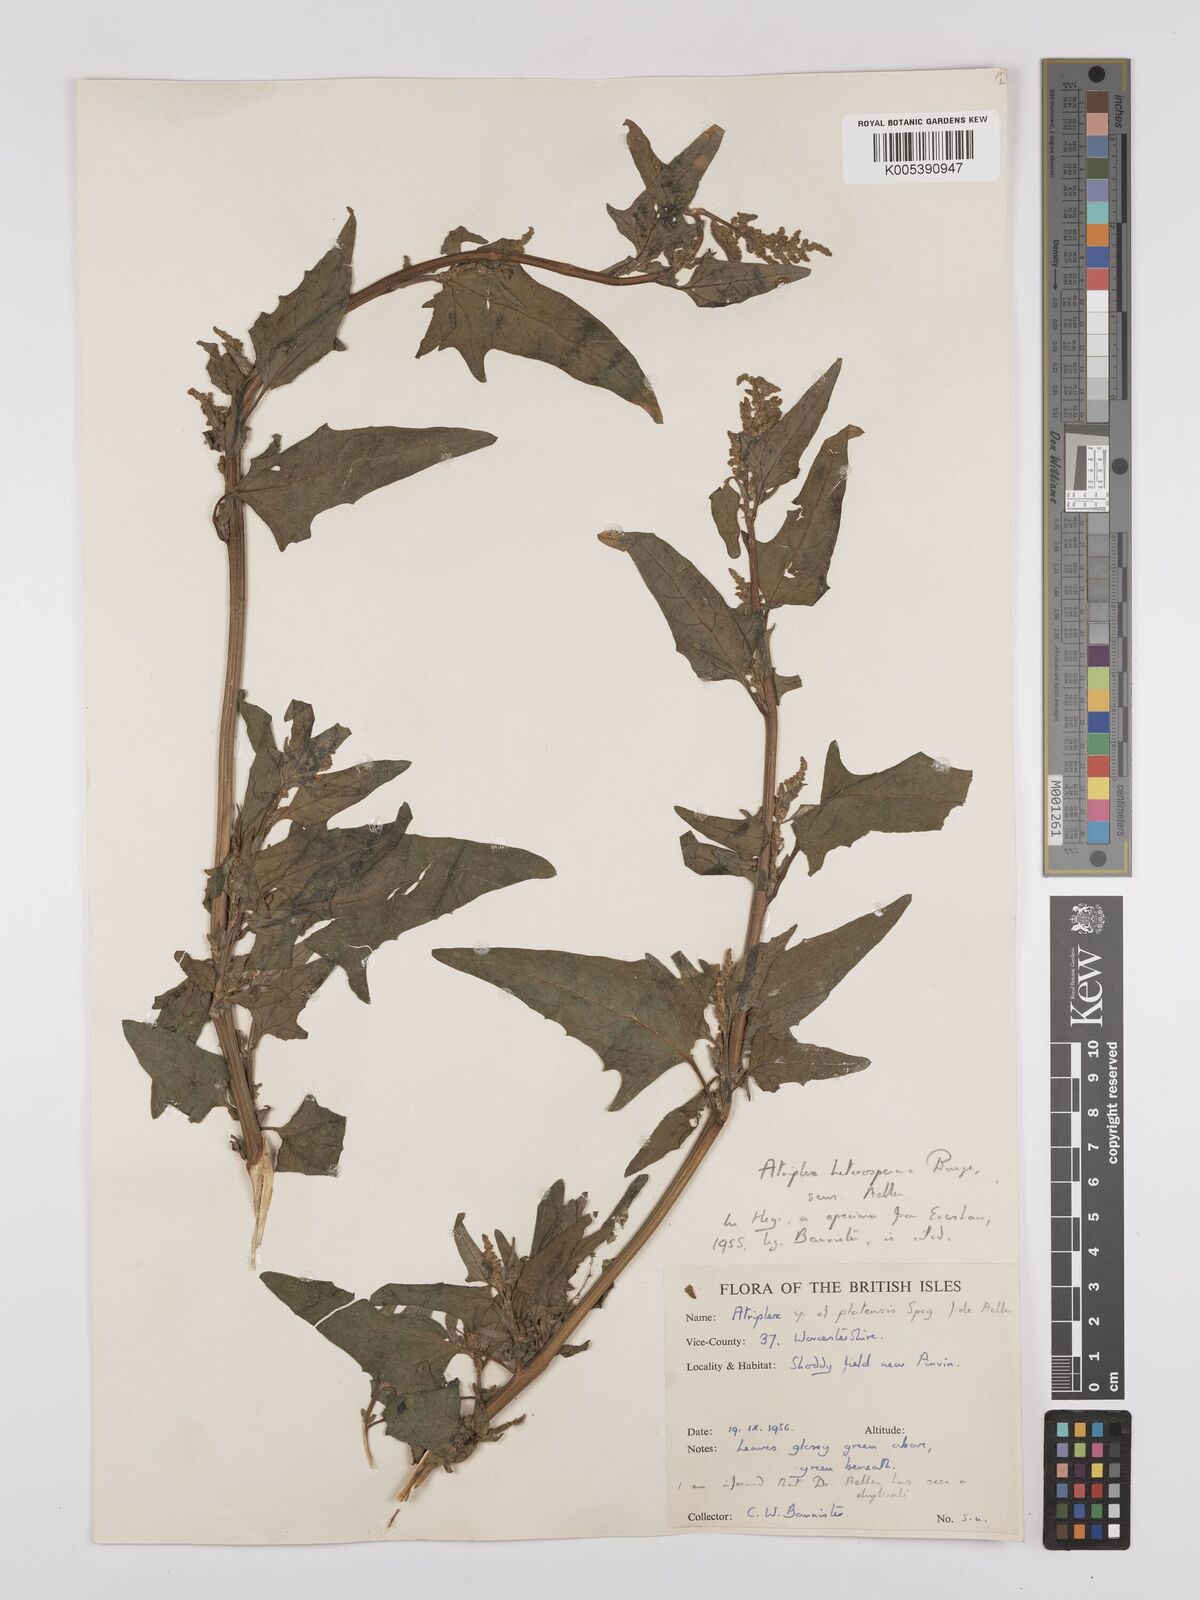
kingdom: Plantae
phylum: Tracheophyta
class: Magnoliopsida
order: Caryophyllales
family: Amaranthaceae
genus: Atriplex
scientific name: Atriplex micrantha
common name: Twoscale saltbush
